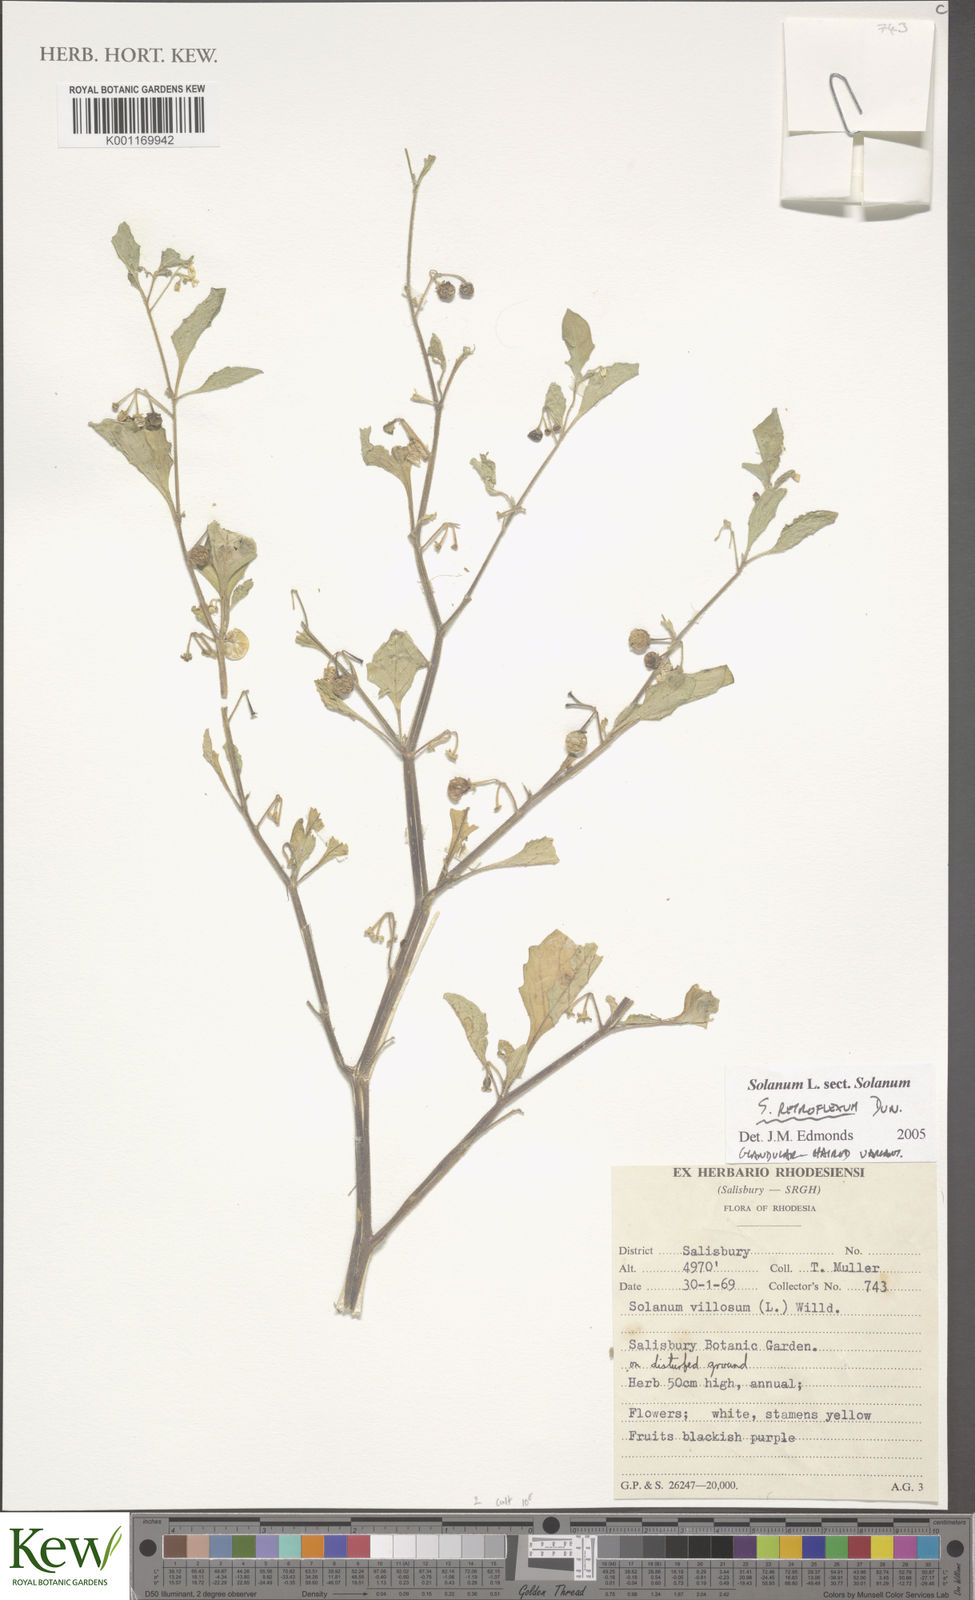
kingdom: Plantae
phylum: Tracheophyta
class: Magnoliopsida
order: Solanales
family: Solanaceae
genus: Solanum
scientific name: Solanum retroflexum
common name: Wonderberry
